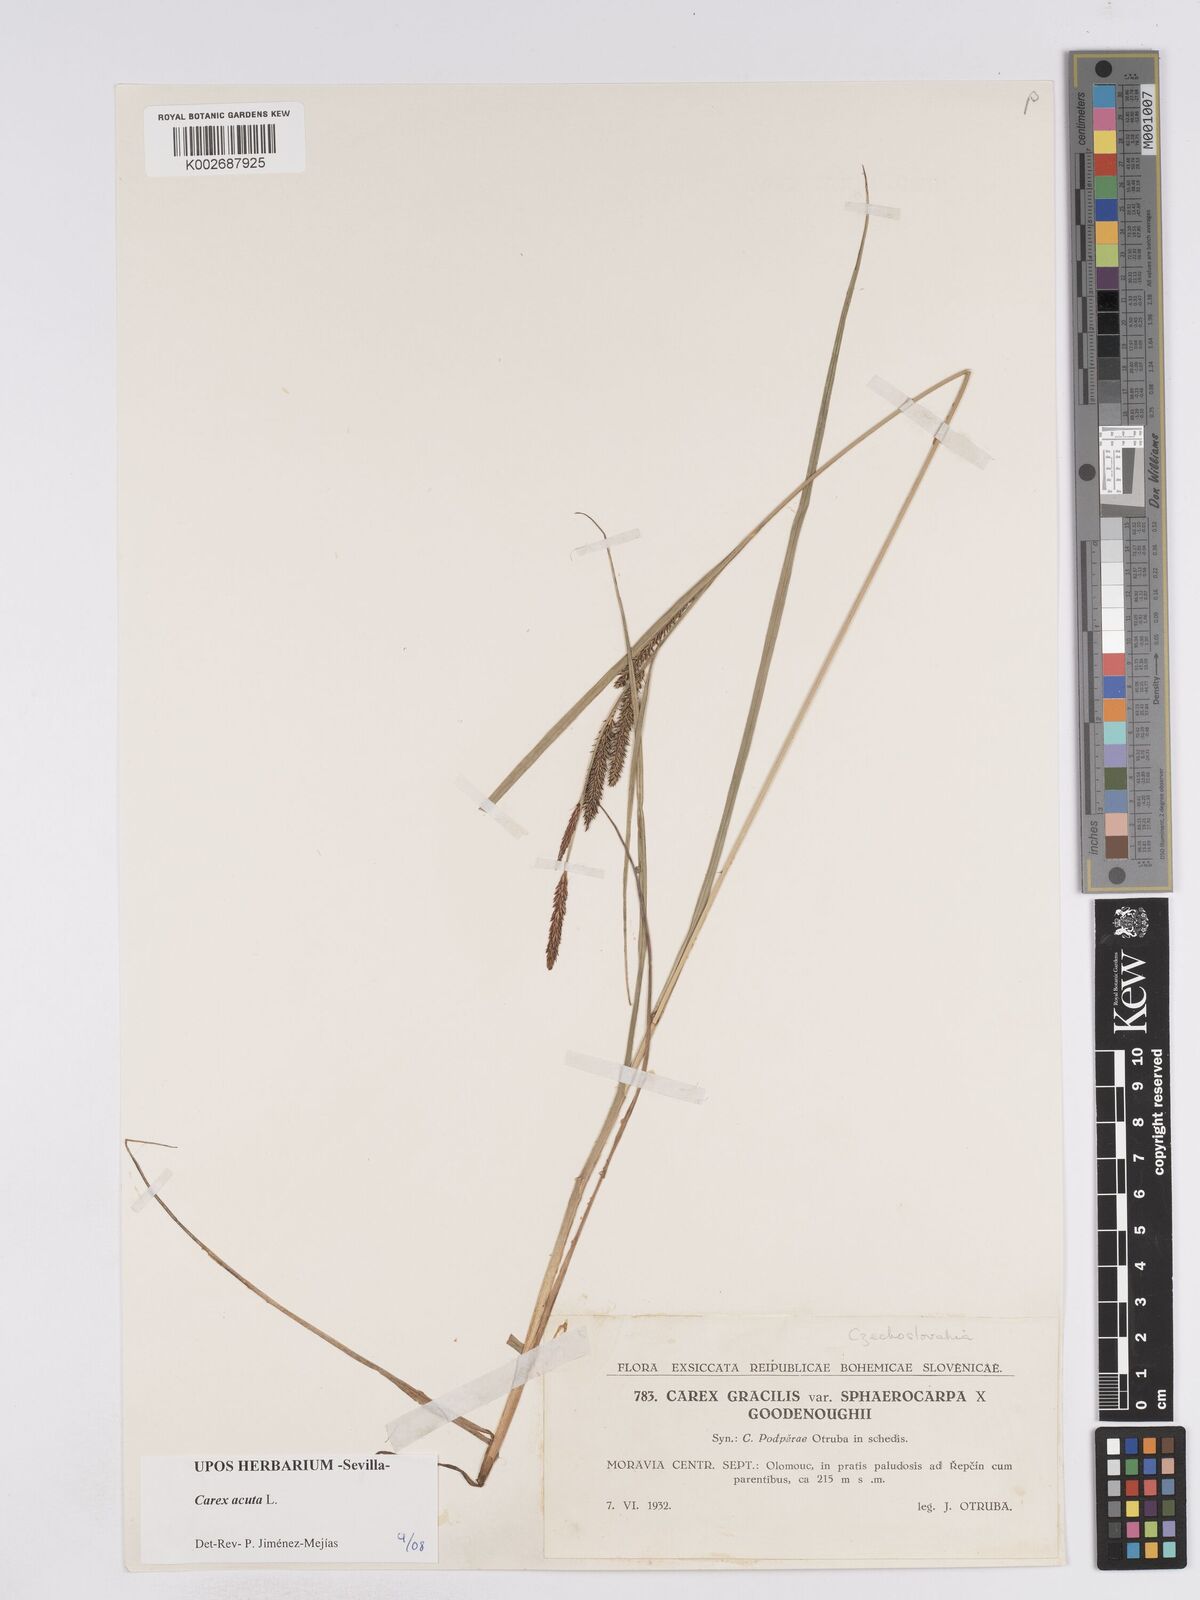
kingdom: Plantae
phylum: Tracheophyta
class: Liliopsida
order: Poales
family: Cyperaceae
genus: Carex
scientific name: Carex acuta
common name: Slender tufted-sedge
